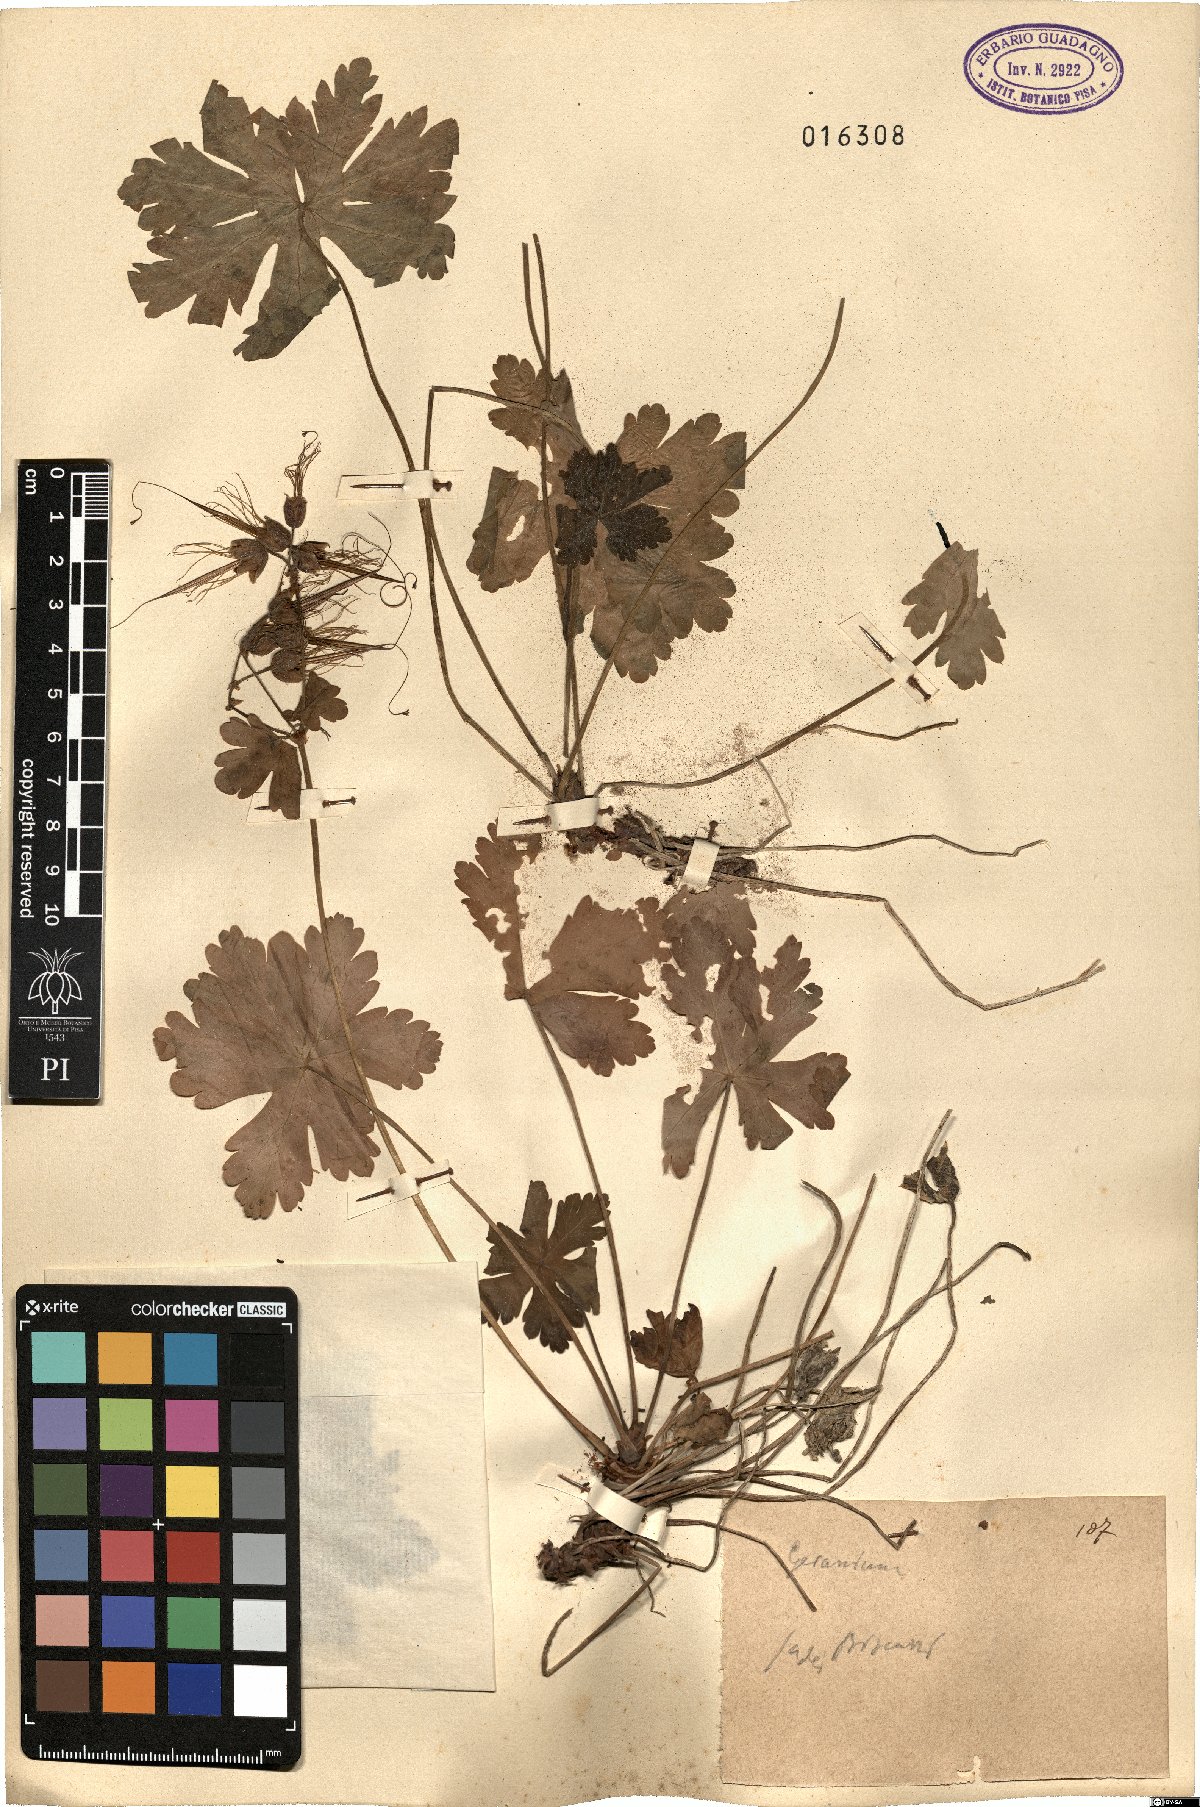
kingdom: Plantae
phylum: Tracheophyta
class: Magnoliopsida
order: Geraniales
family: Geraniaceae
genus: Geranium
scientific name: Geranium
